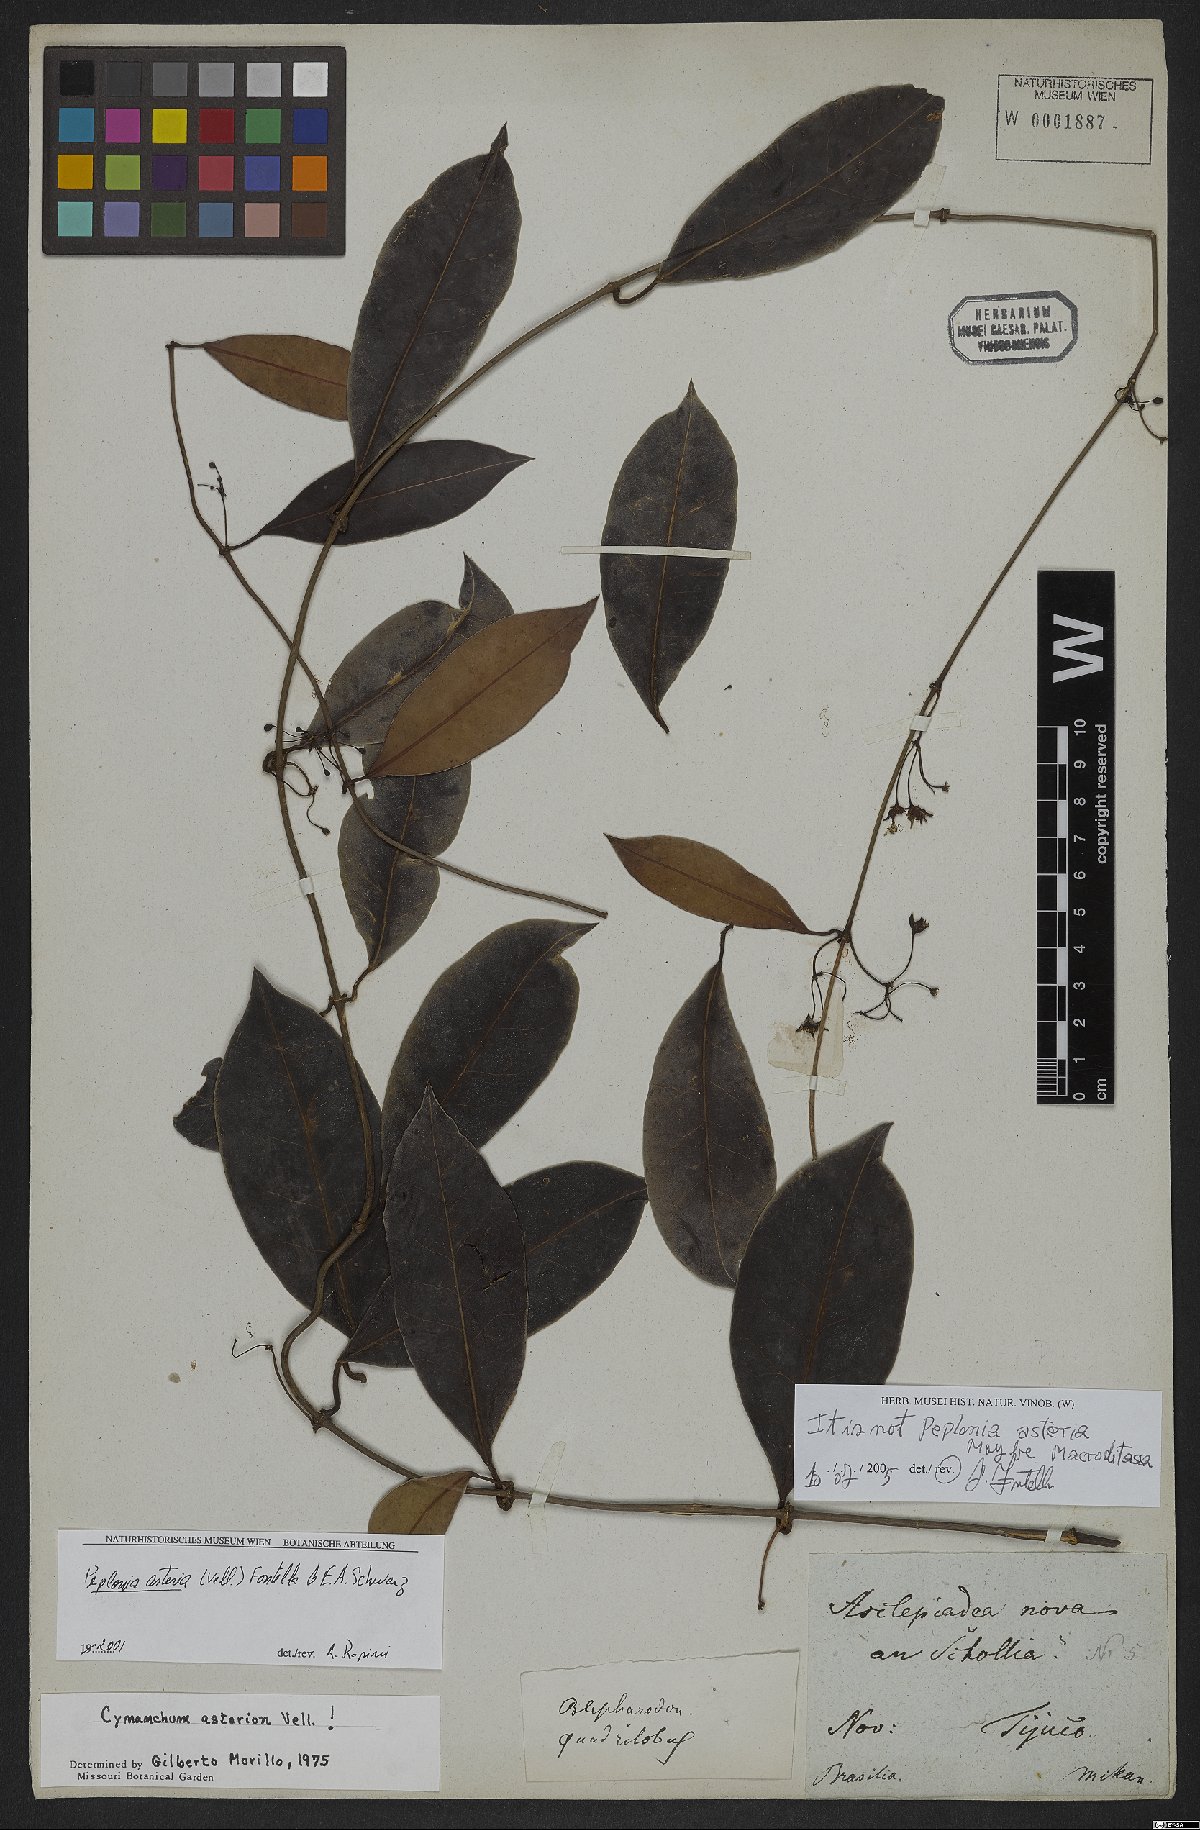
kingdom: Plantae
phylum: Tracheophyta
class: Magnoliopsida
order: Gentianales
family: Apocynaceae
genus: Macroditassa
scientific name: Macroditassa
